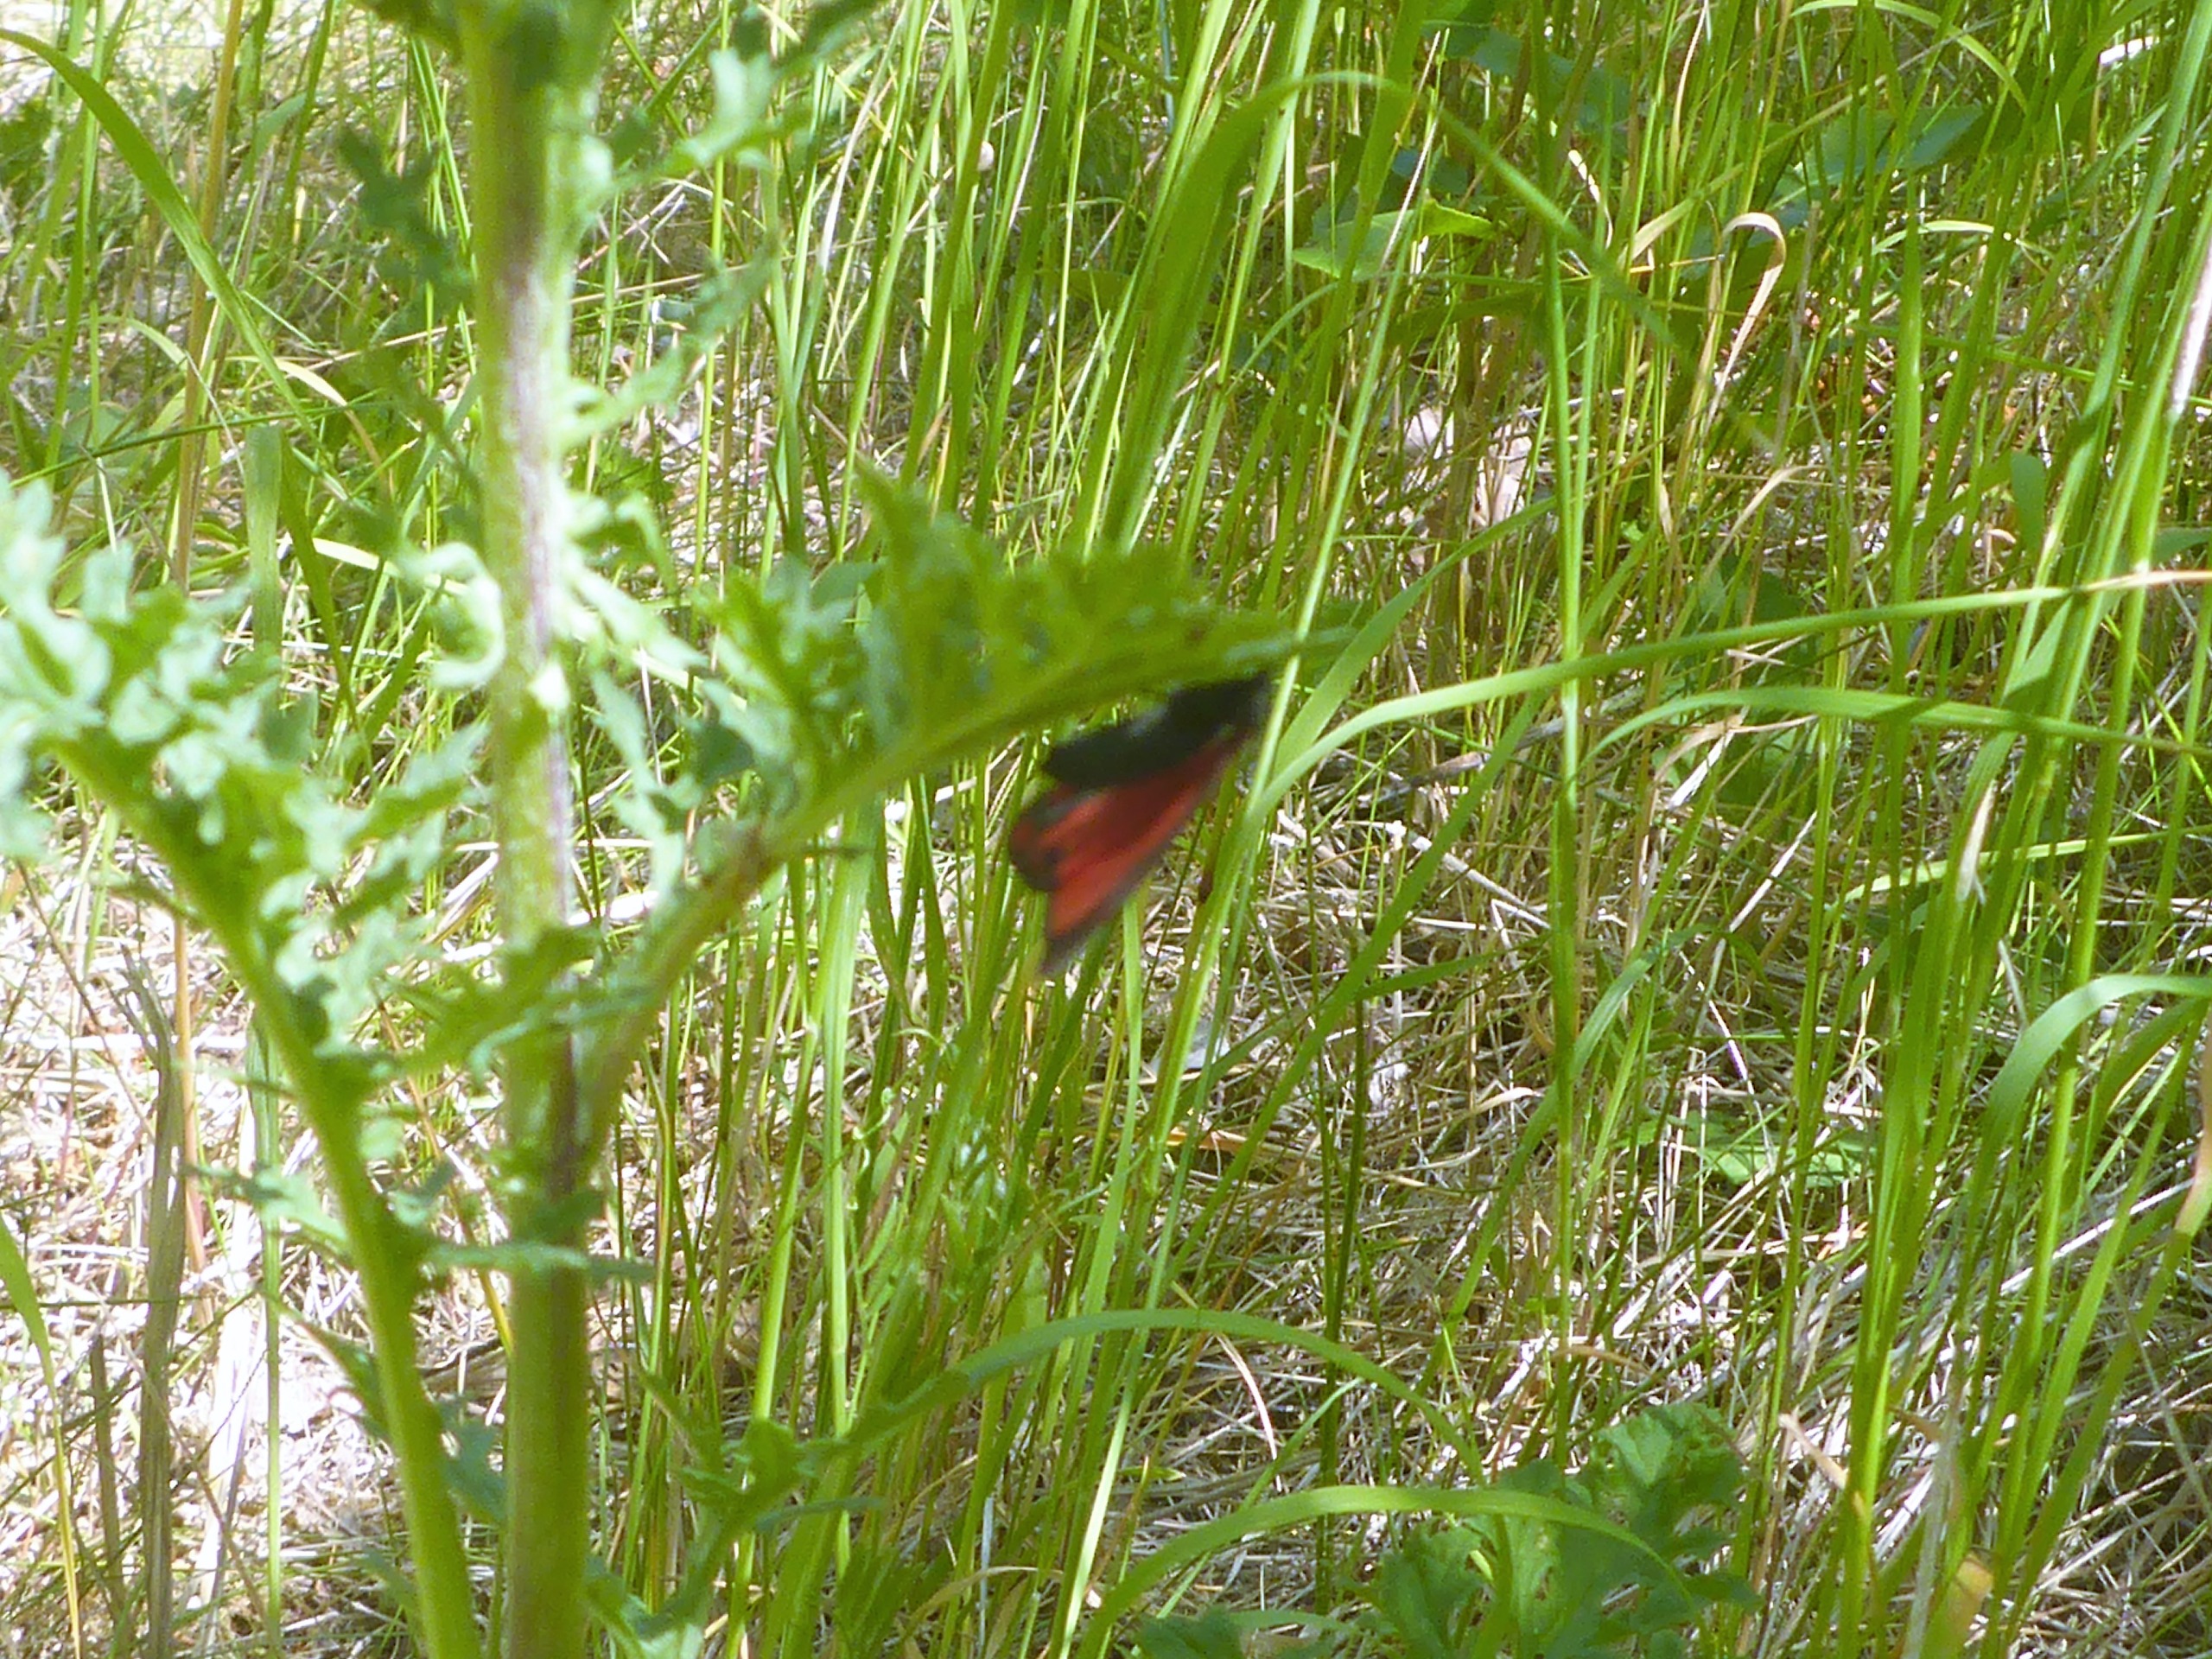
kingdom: Animalia
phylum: Arthropoda
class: Insecta
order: Lepidoptera
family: Erebidae
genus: Tyria
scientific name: Tyria jacobaeae
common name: Blodplet
